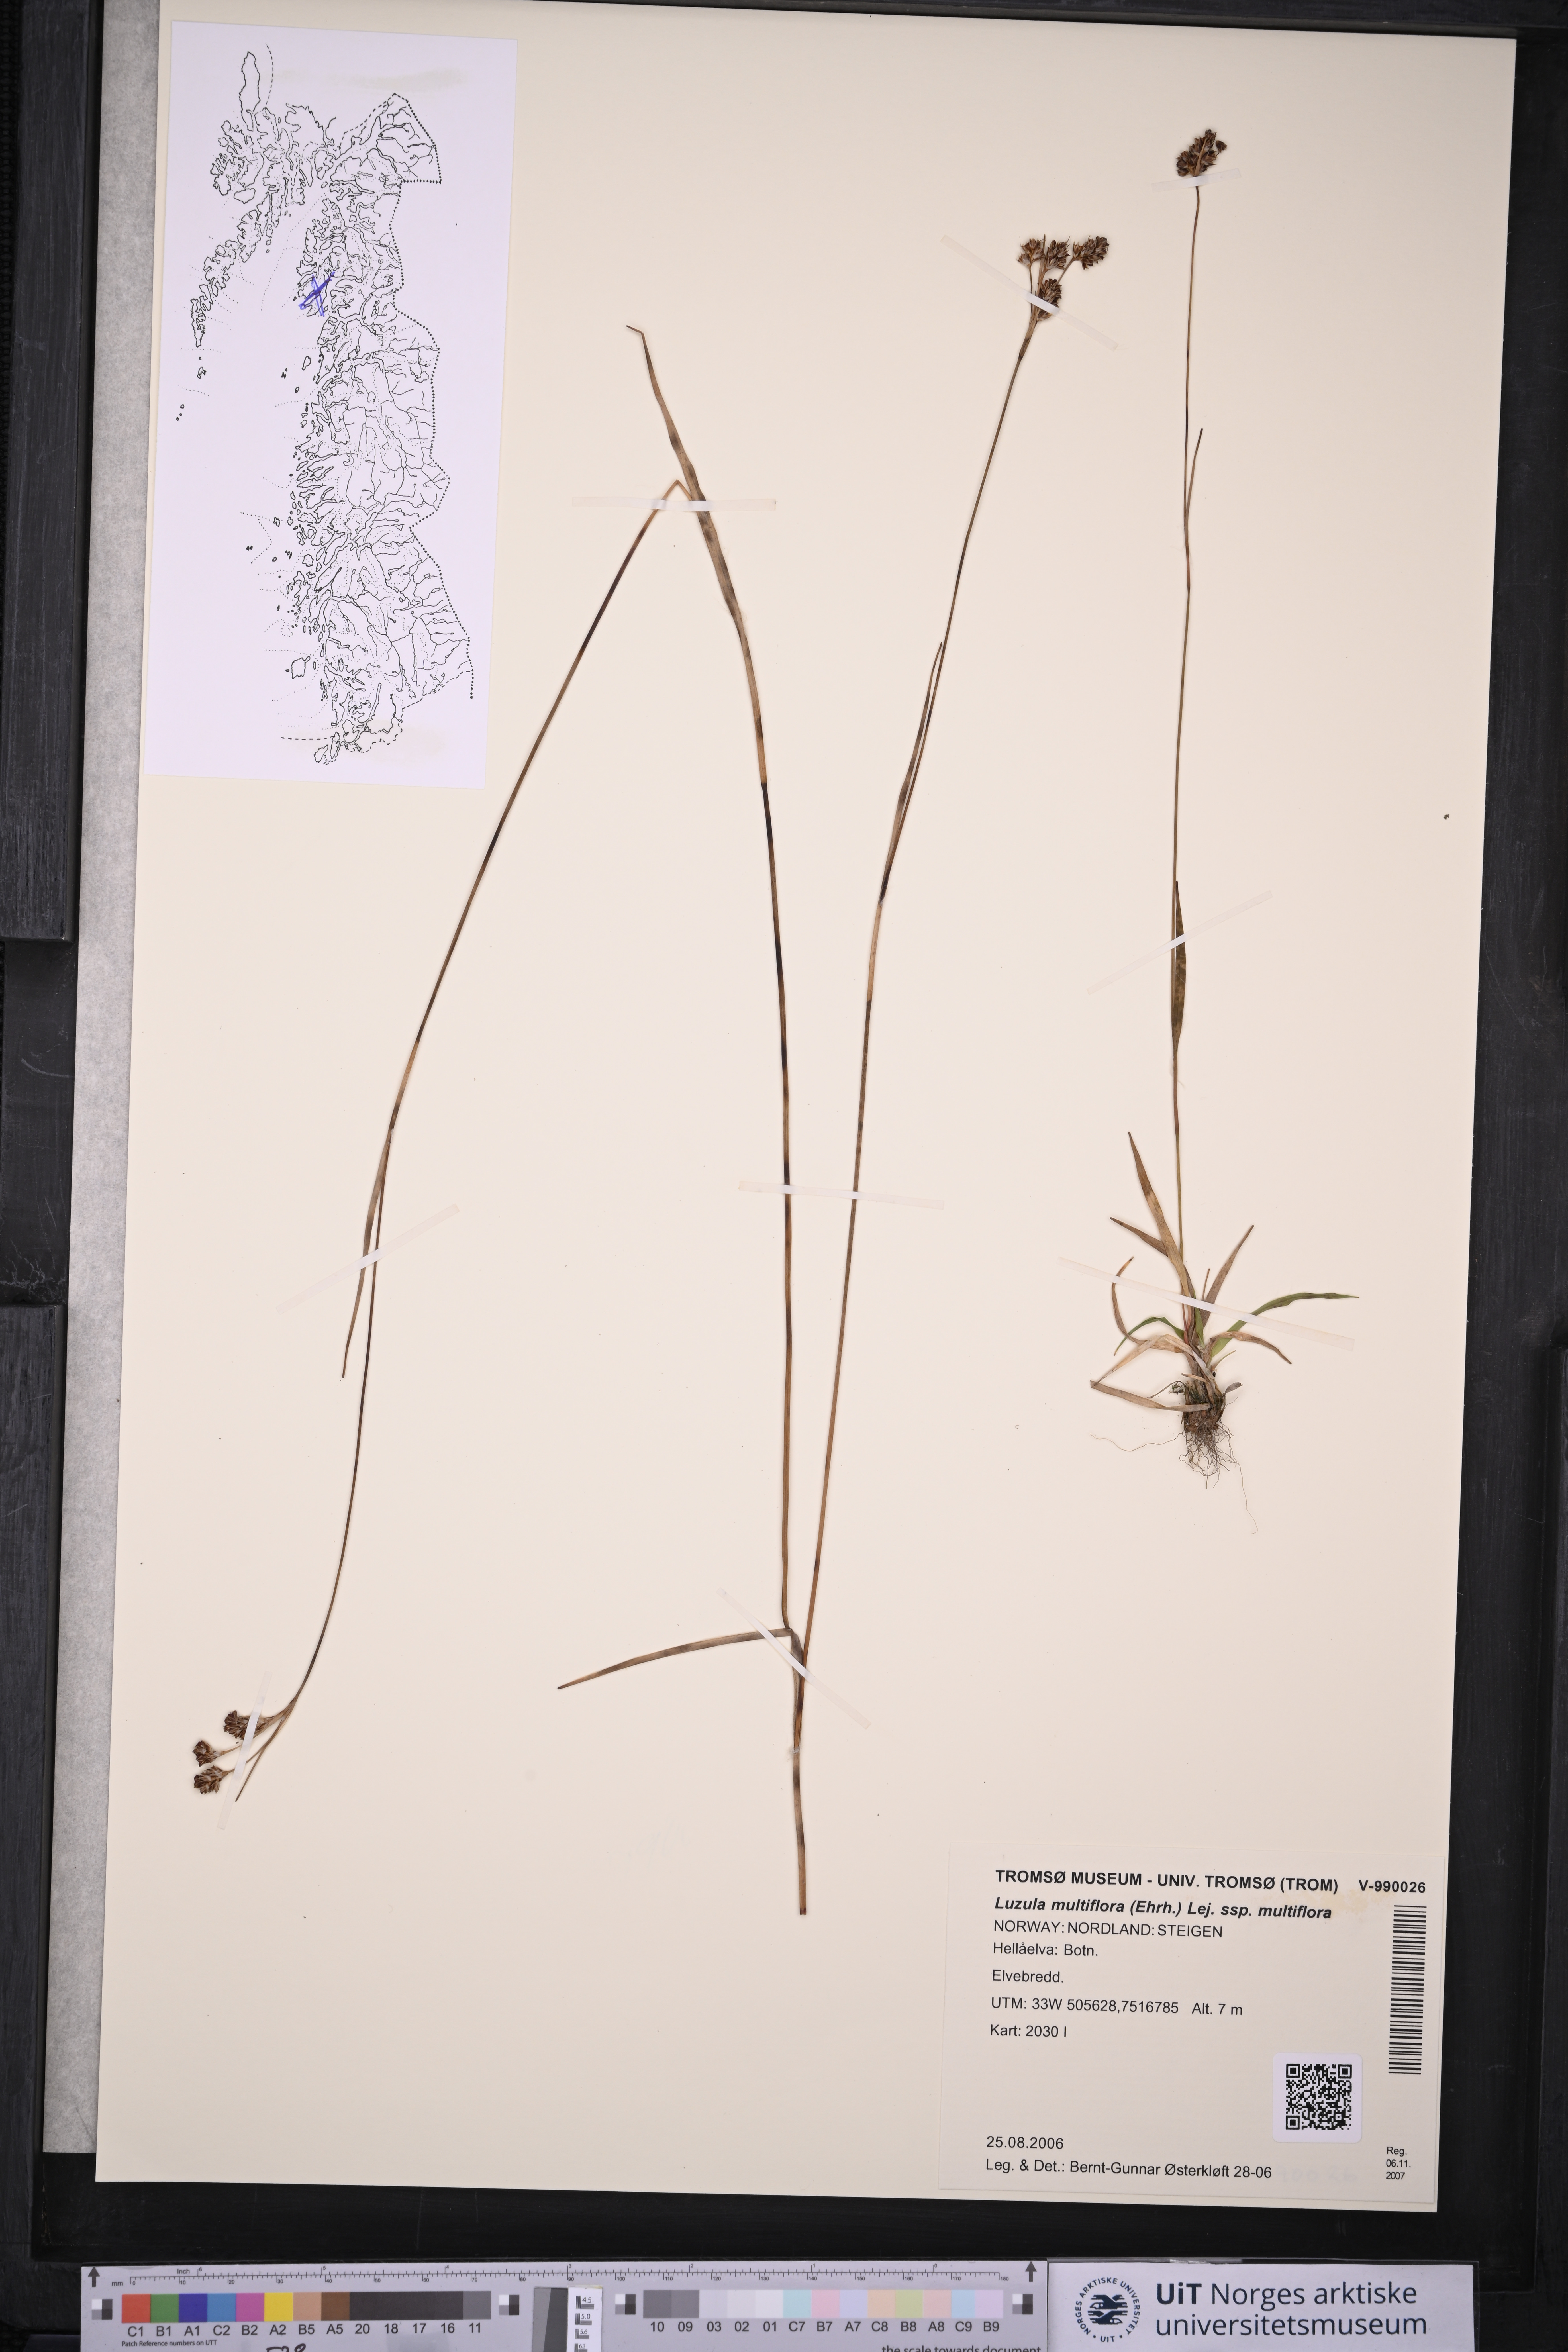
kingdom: Plantae
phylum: Tracheophyta
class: Liliopsida
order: Poales
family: Juncaceae
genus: Luzula
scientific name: Luzula multiflora
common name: Heath wood-rush
